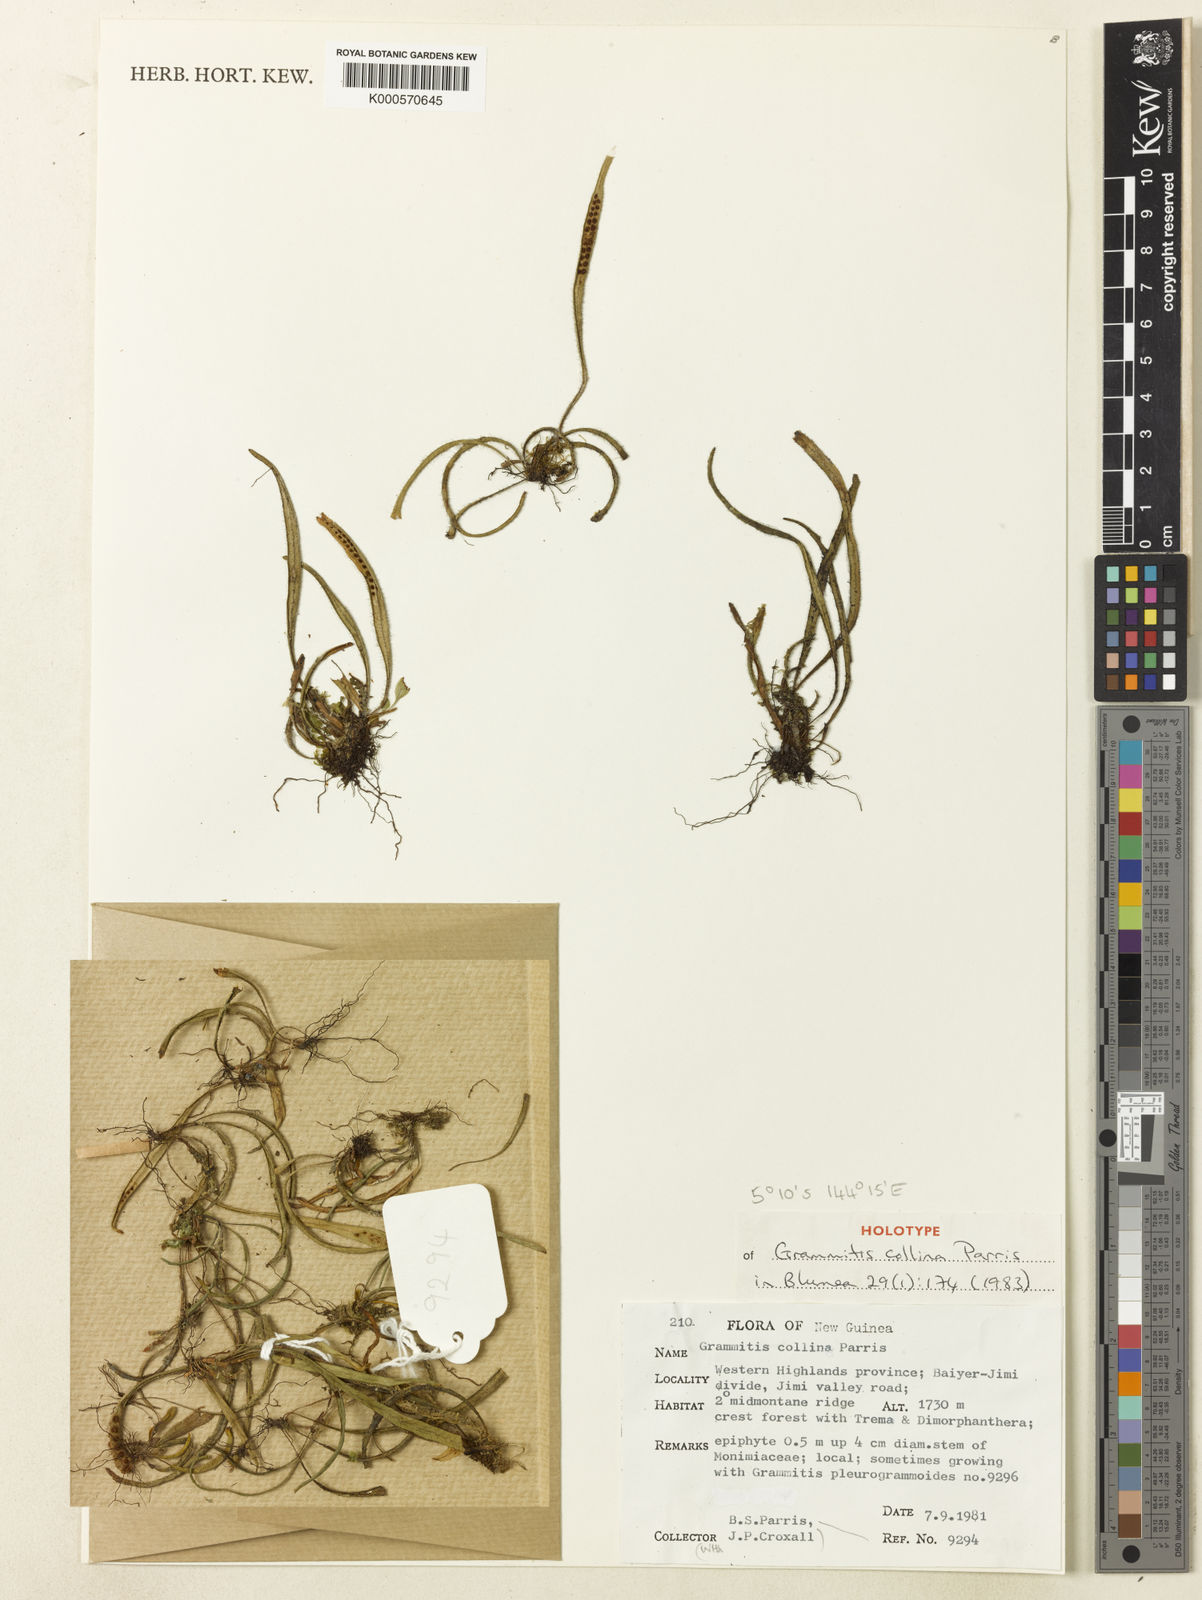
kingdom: Plantae
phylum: Tracheophyta
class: Polypodiopsida
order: Polypodiales
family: Polypodiaceae
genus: Oreogrammitis
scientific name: Oreogrammitis collina
